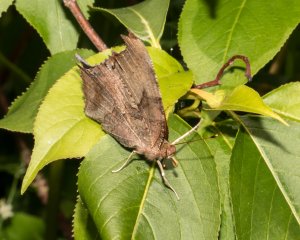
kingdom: Animalia
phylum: Arthropoda
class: Insecta
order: Lepidoptera
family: Nymphalidae
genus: Polygonia
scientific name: Polygonia interrogationis
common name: Question Mark
